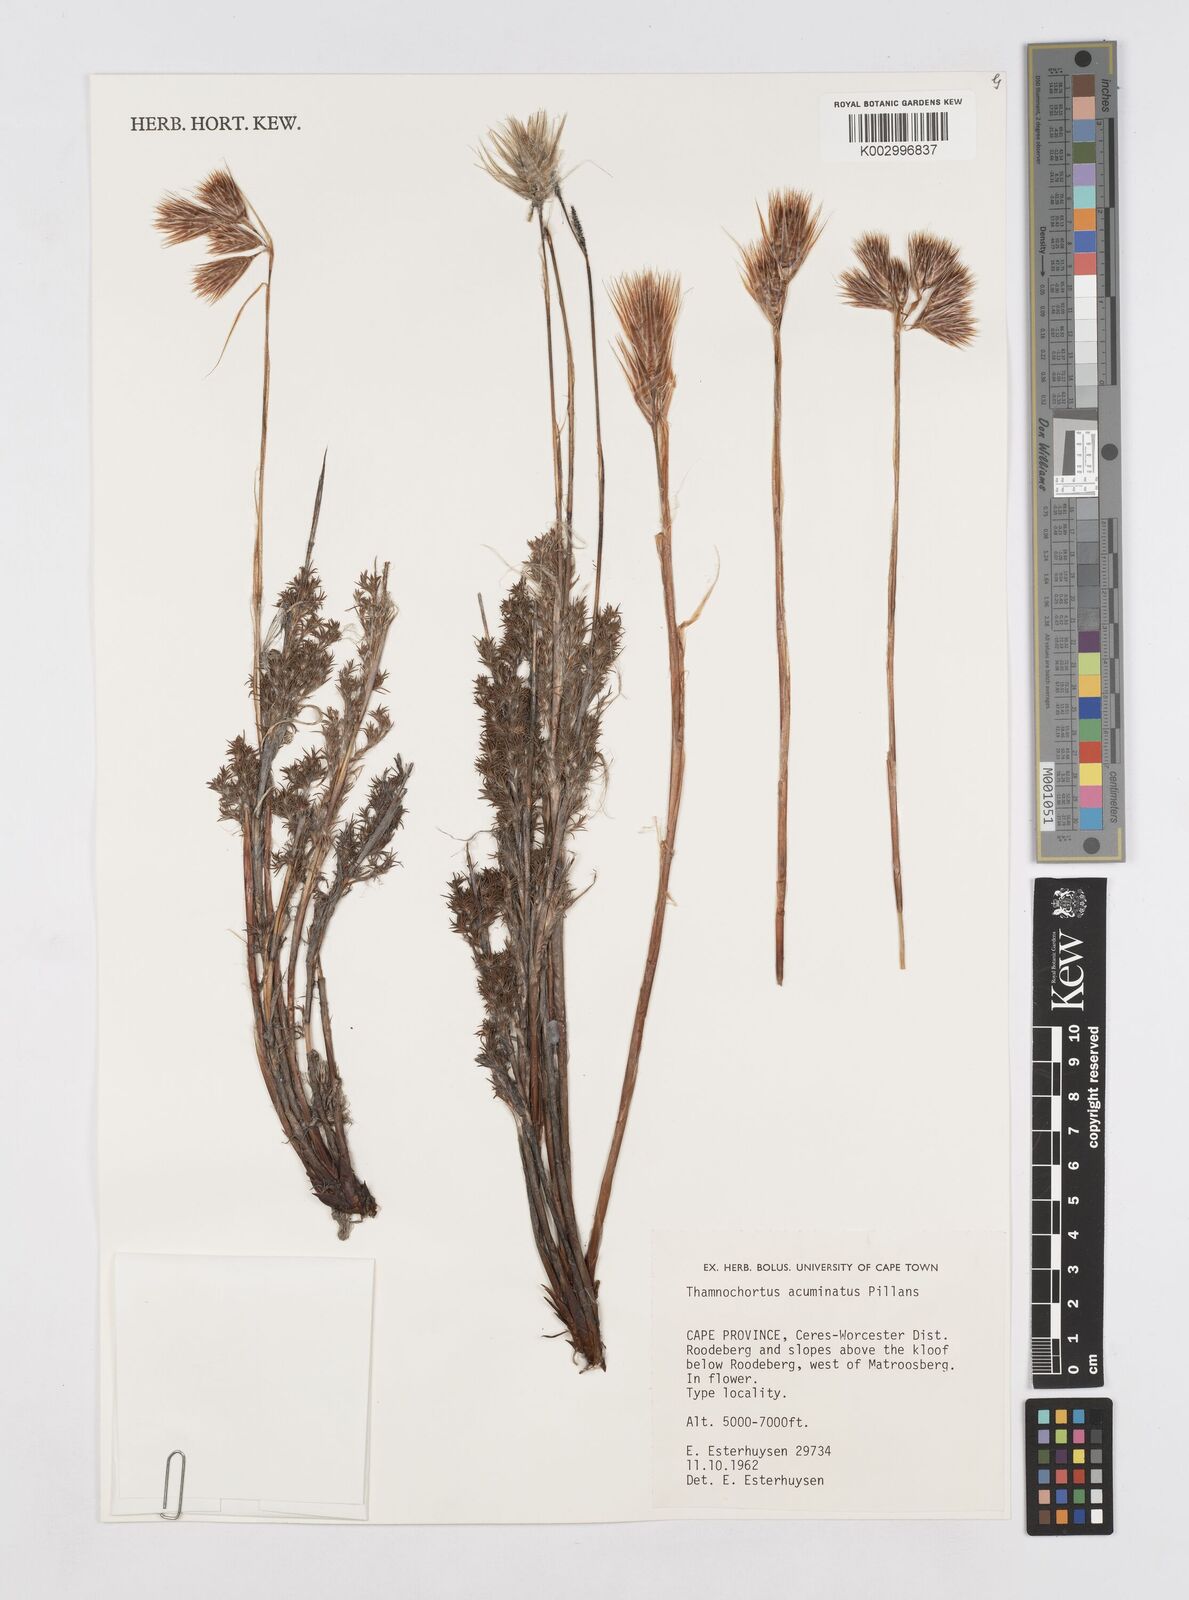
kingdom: Plantae
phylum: Tracheophyta
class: Liliopsida
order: Poales
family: Restionaceae
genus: Thamnochortus
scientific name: Thamnochortus acuminatus
